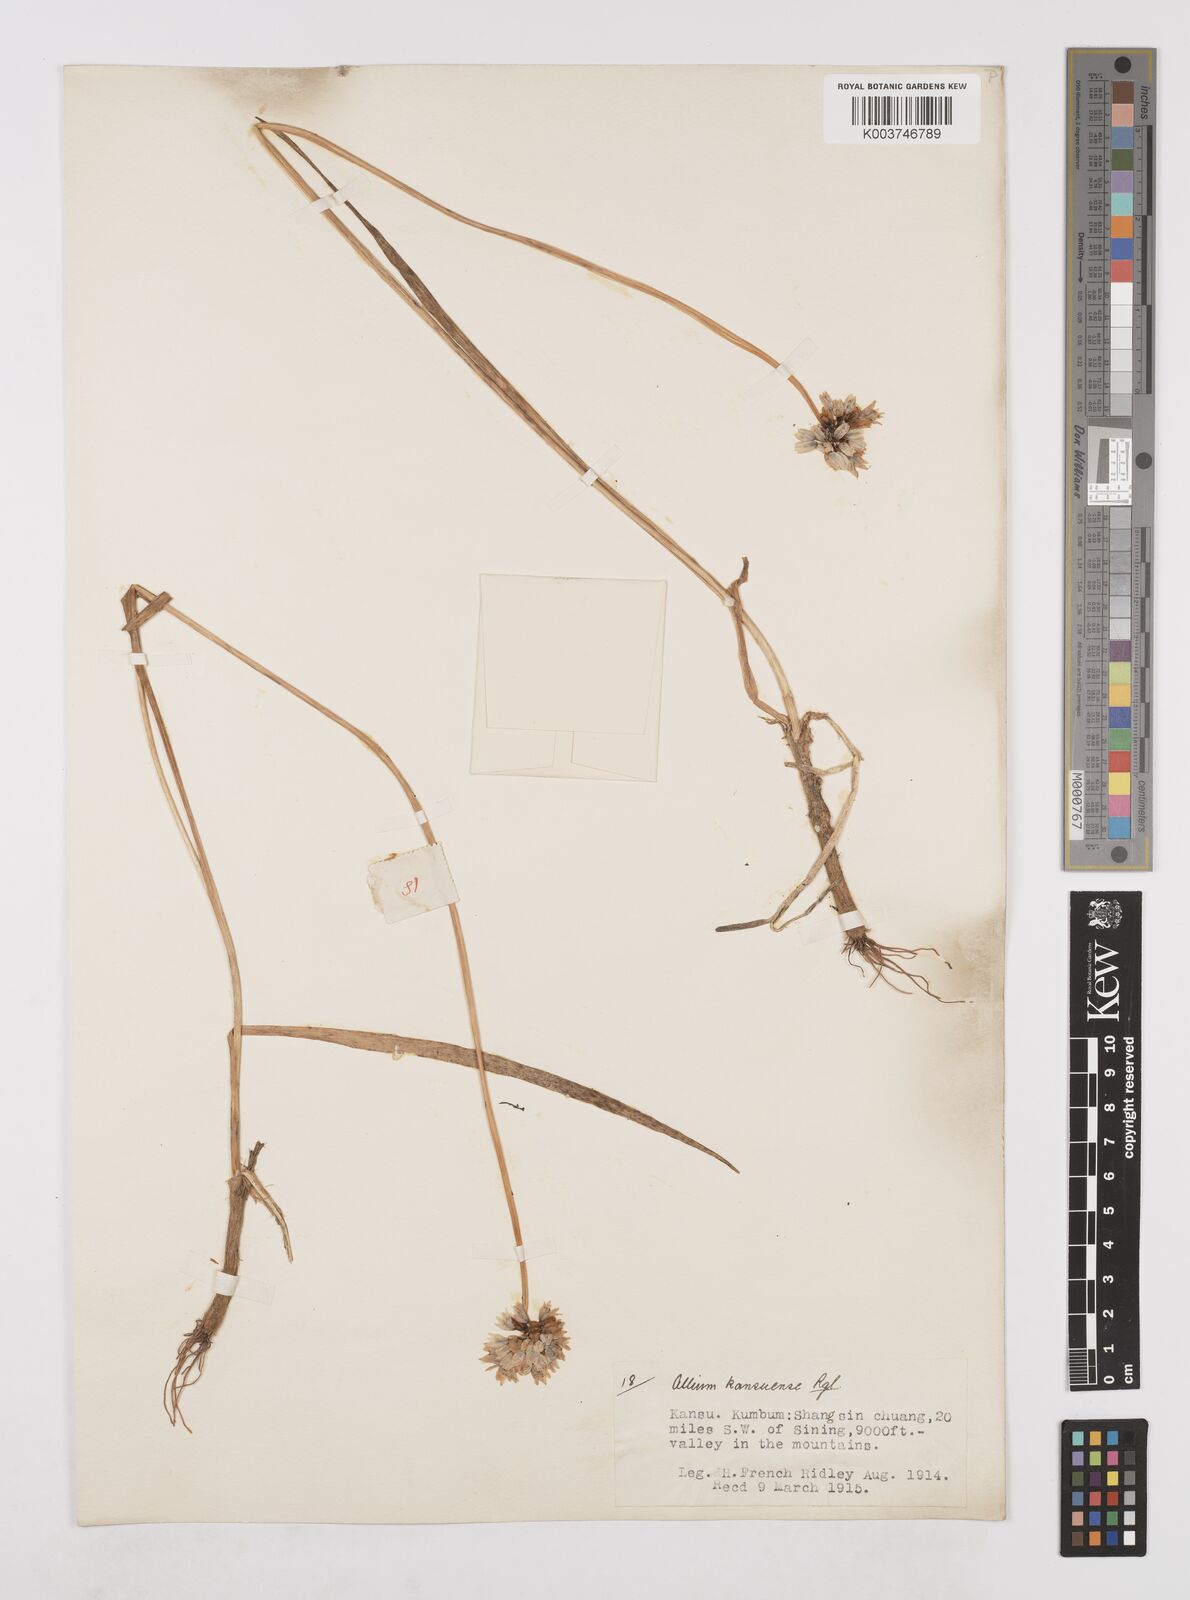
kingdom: Plantae
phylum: Tracheophyta
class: Liliopsida
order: Asparagales
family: Amaryllidaceae
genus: Allium
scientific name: Allium sikkimense
